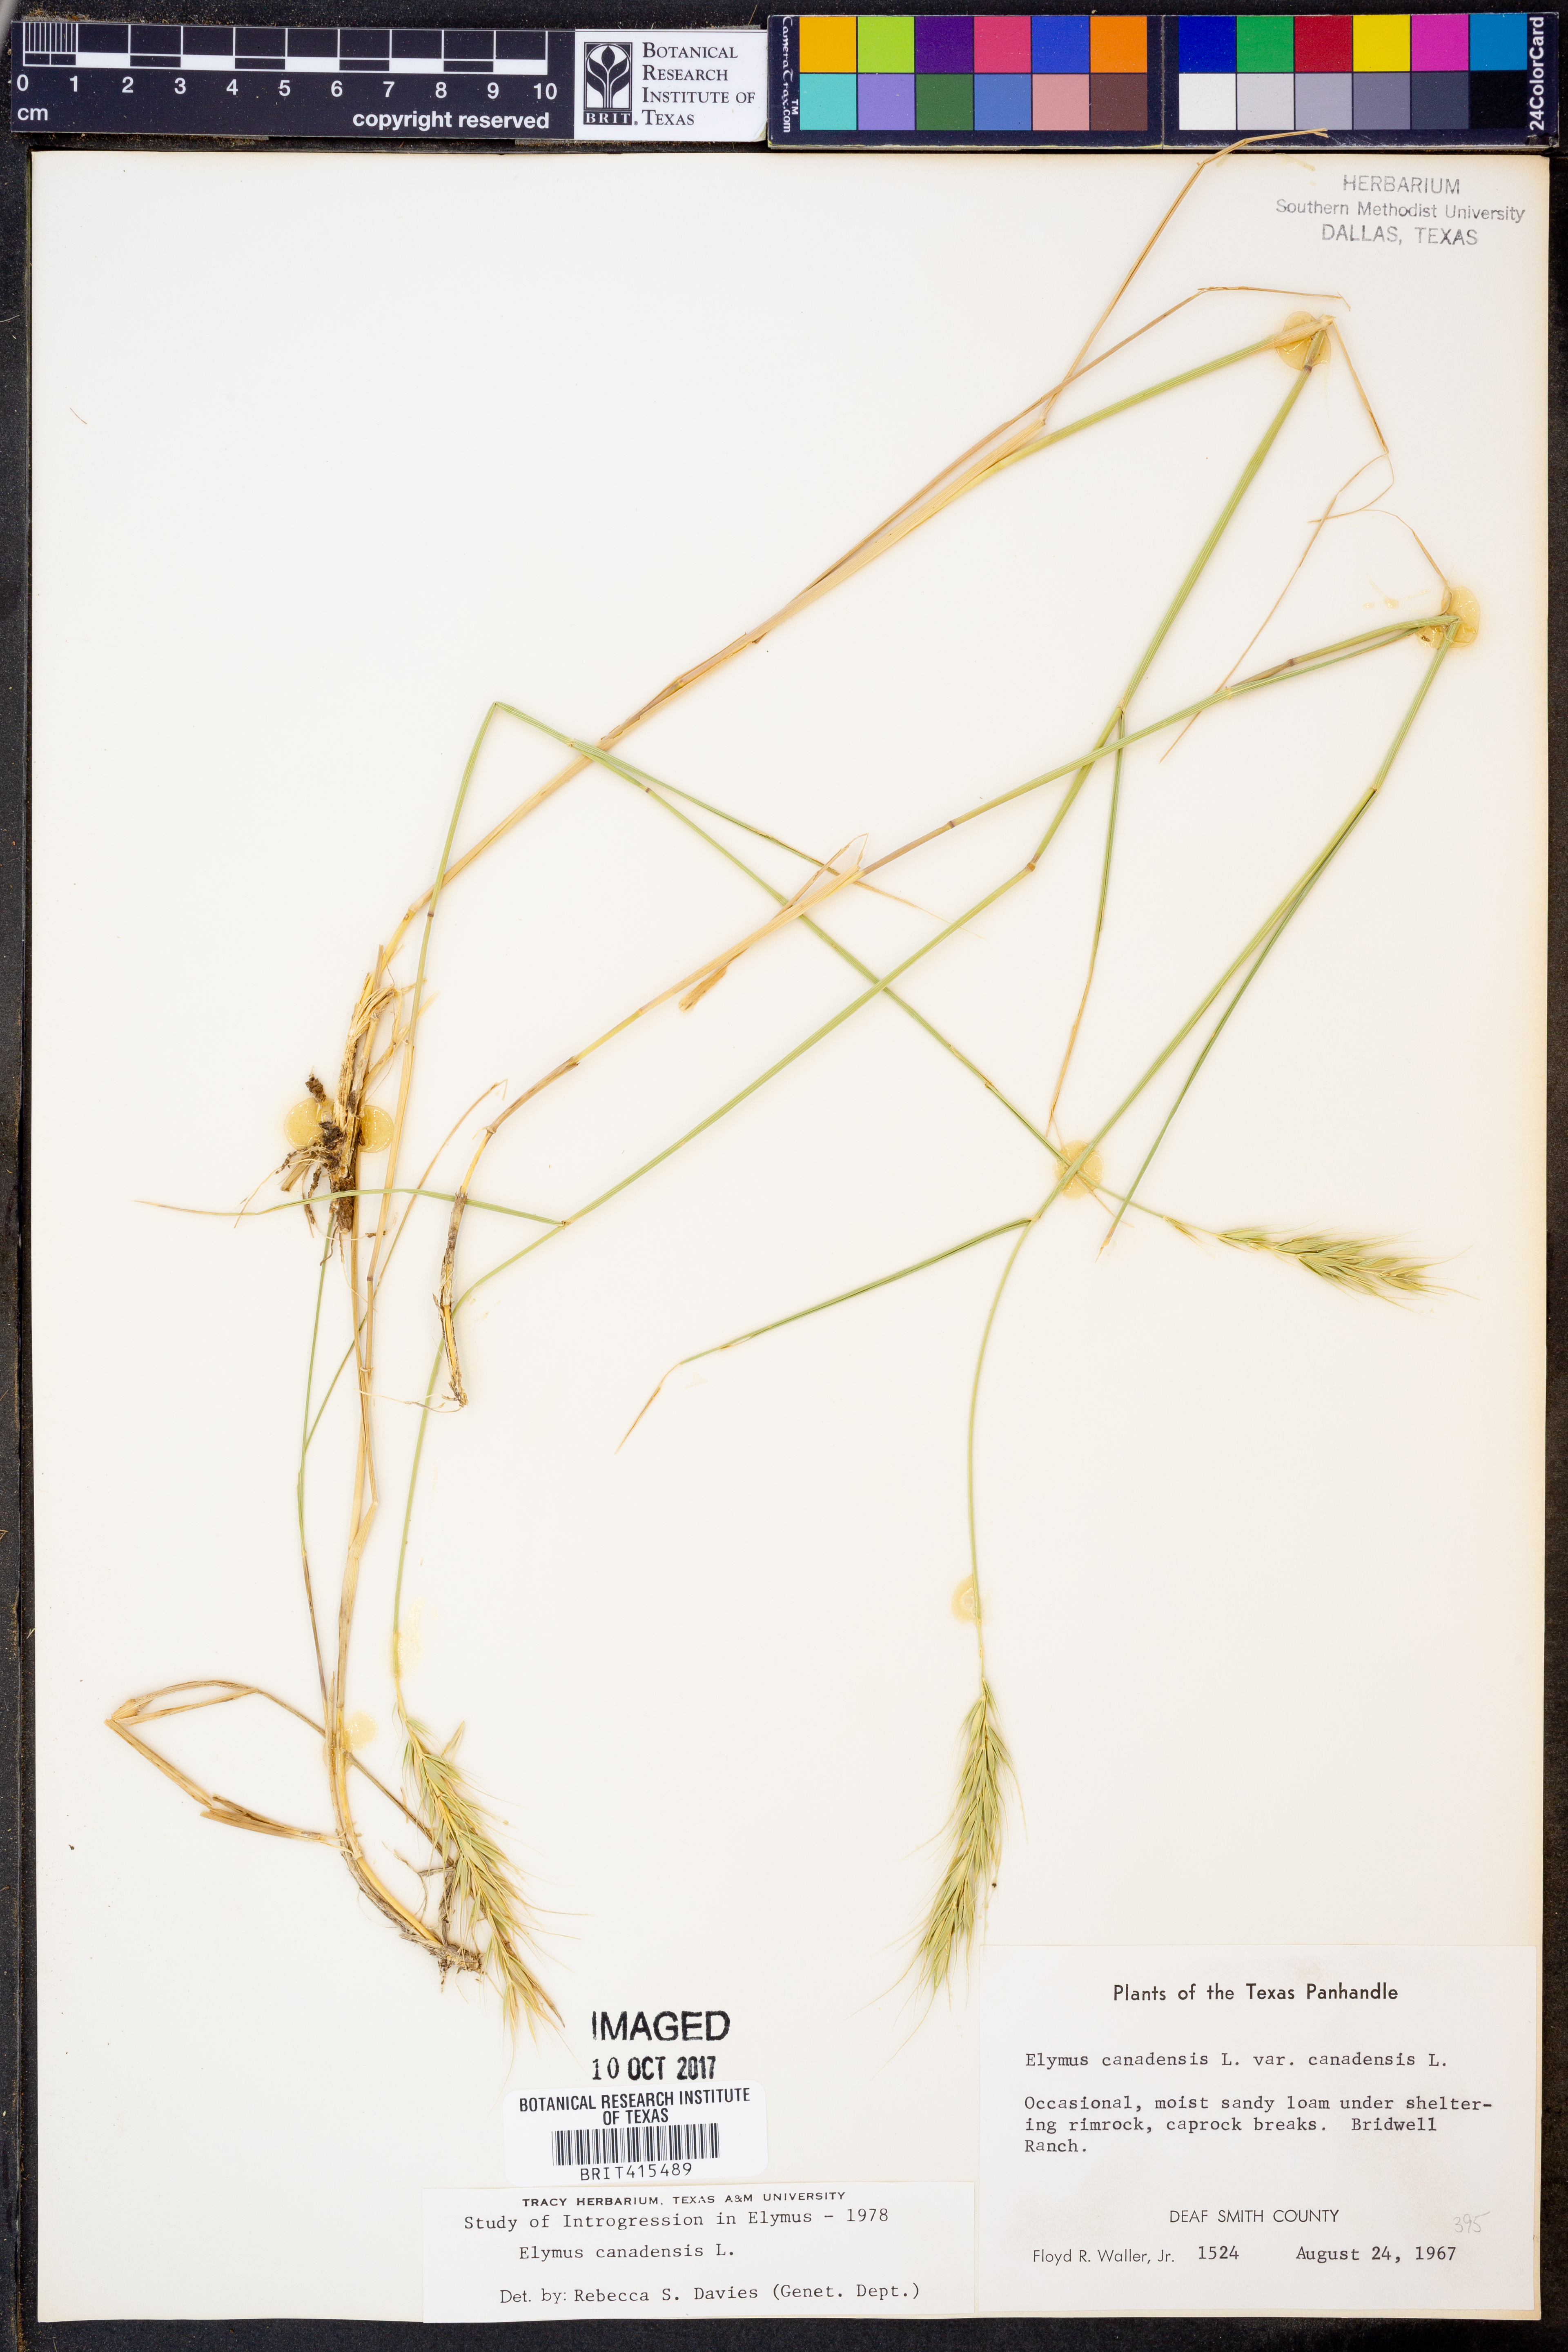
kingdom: Plantae
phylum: Tracheophyta
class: Liliopsida
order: Poales
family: Poaceae
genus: Elymus
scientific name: Elymus canadensis
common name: Canada wild rye
